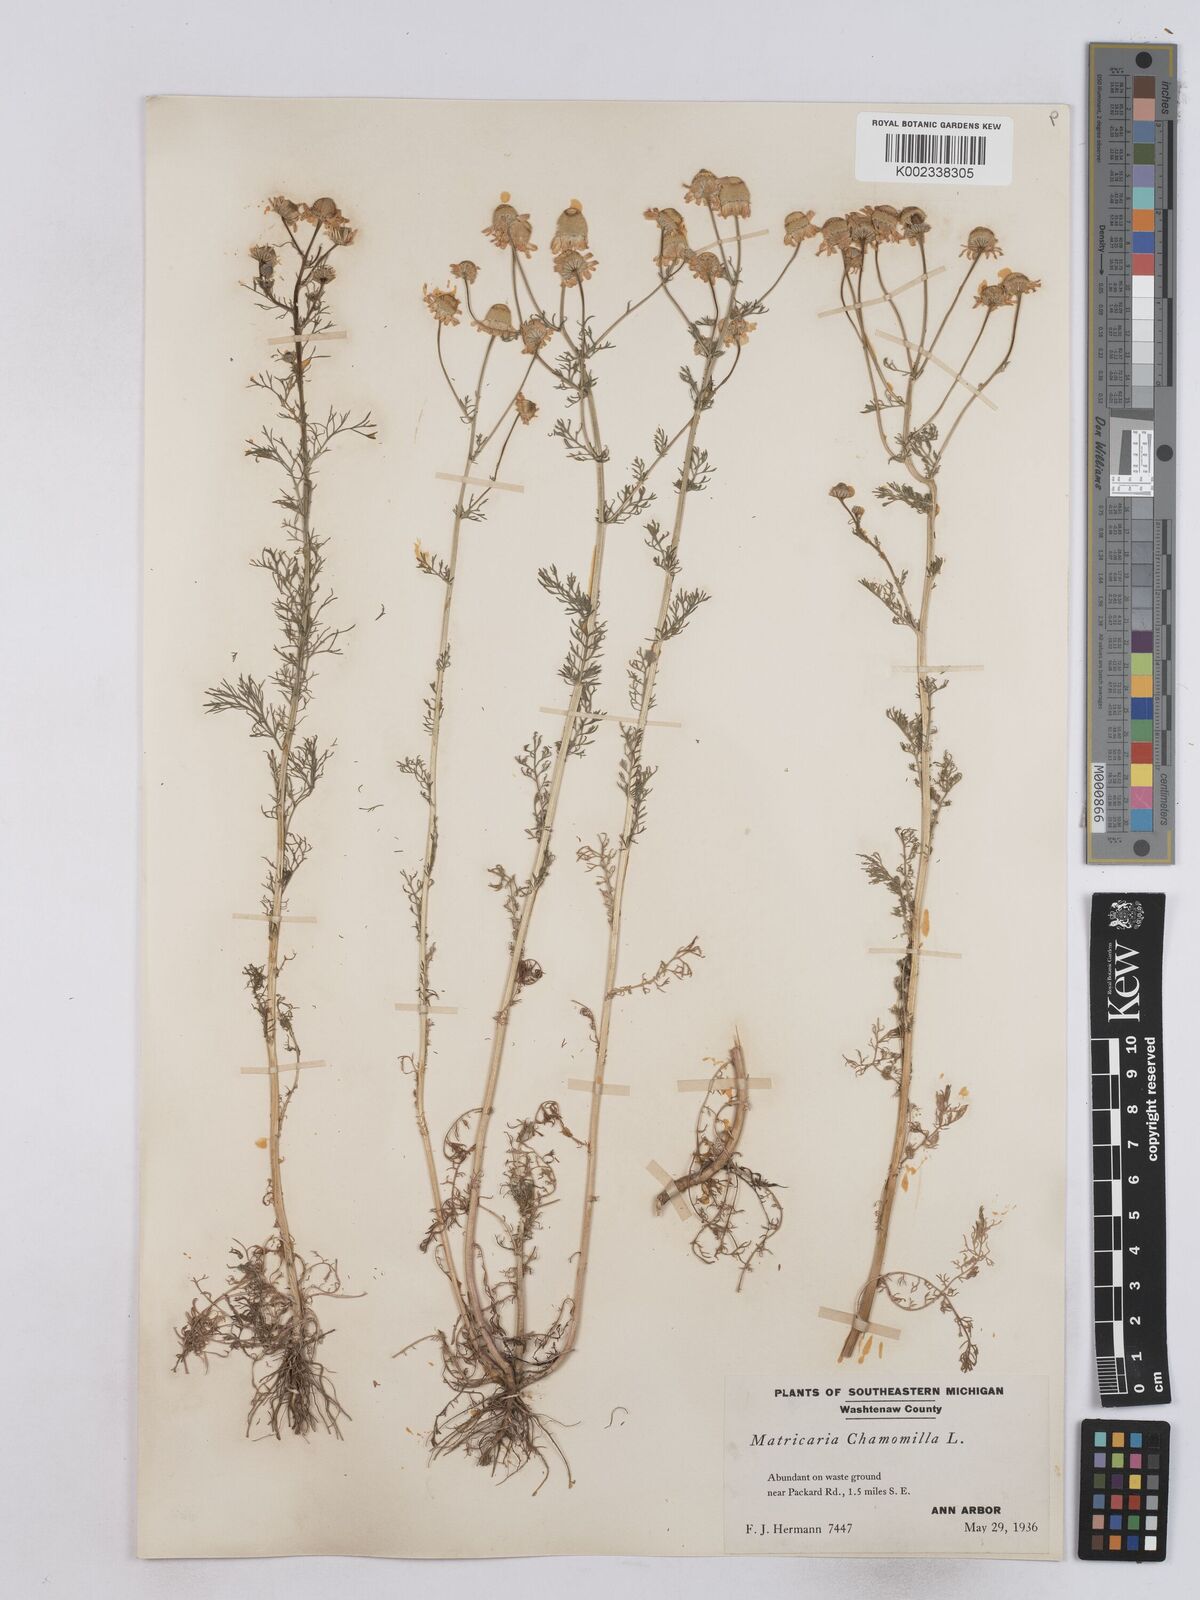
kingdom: Plantae
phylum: Tracheophyta
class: Magnoliopsida
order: Asterales
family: Asteraceae
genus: Matricaria
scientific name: Matricaria chamomilla
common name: Scented mayweed
